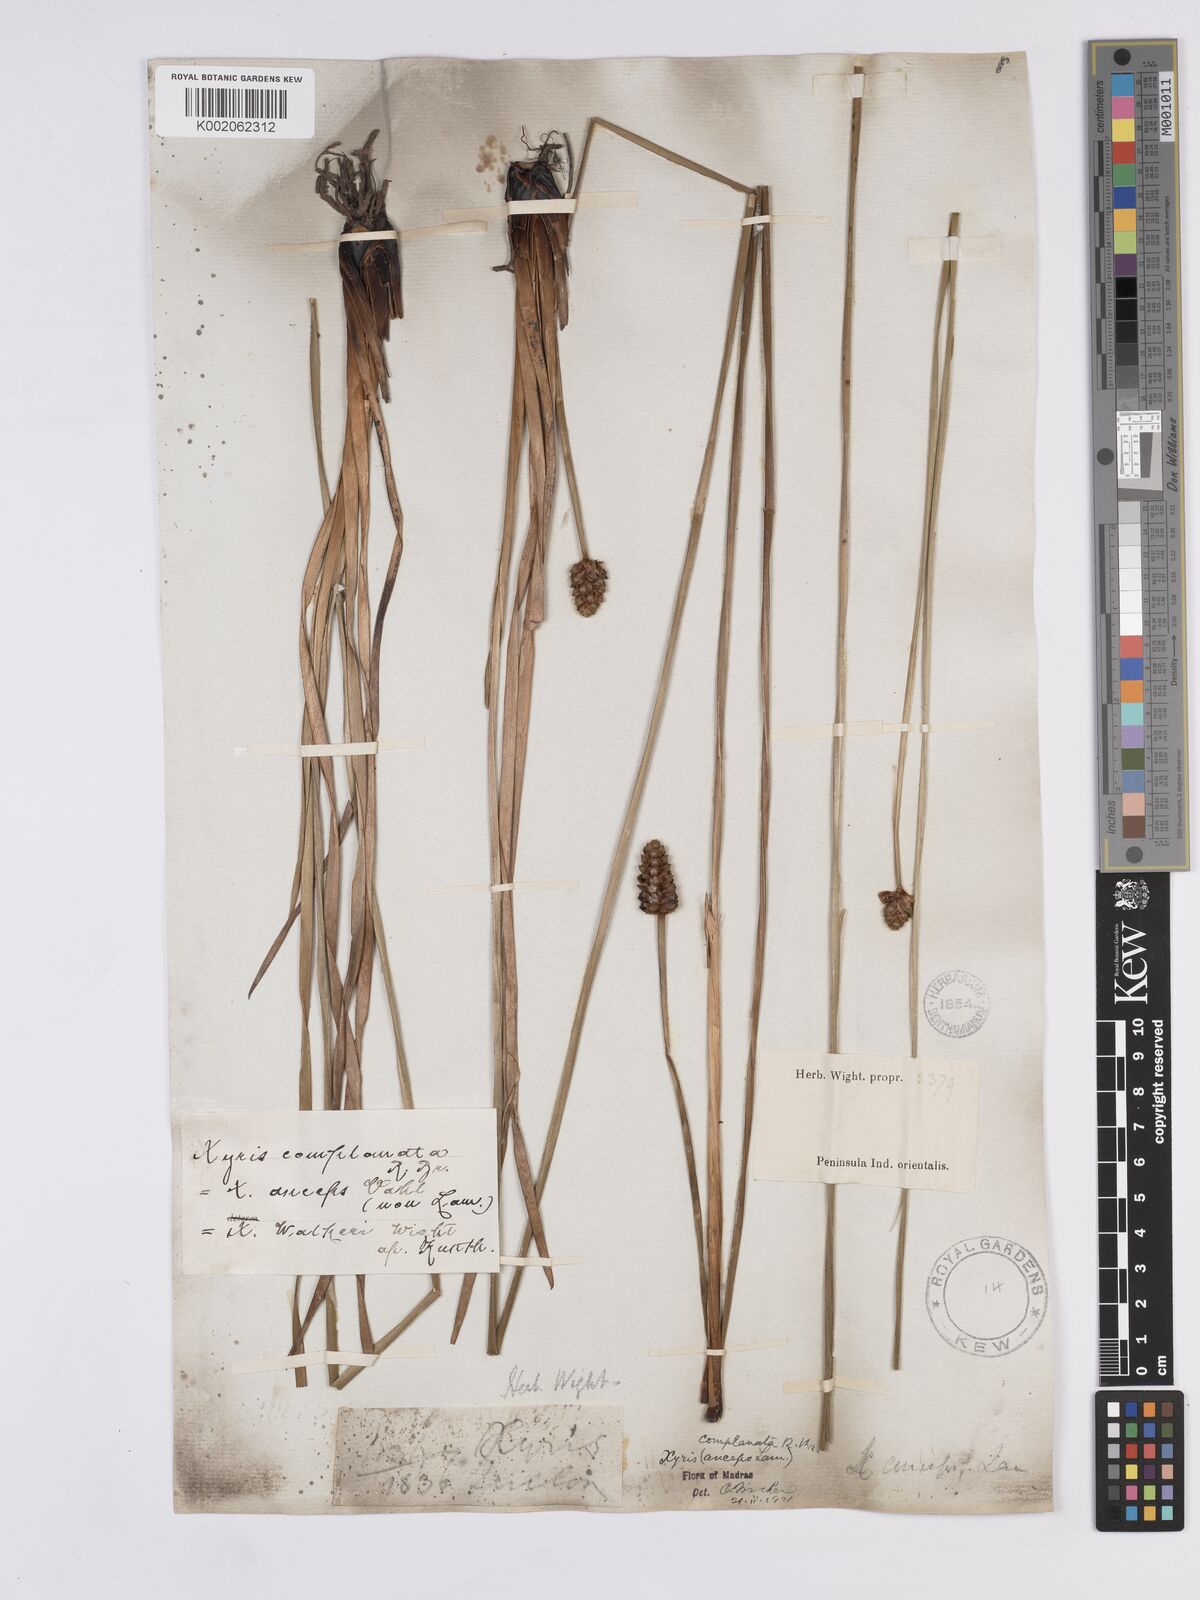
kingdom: Plantae
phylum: Tracheophyta
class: Liliopsida
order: Poales
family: Xyridaceae
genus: Xyris
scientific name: Xyris complanata
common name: Hawai'i yelloweyed grass
